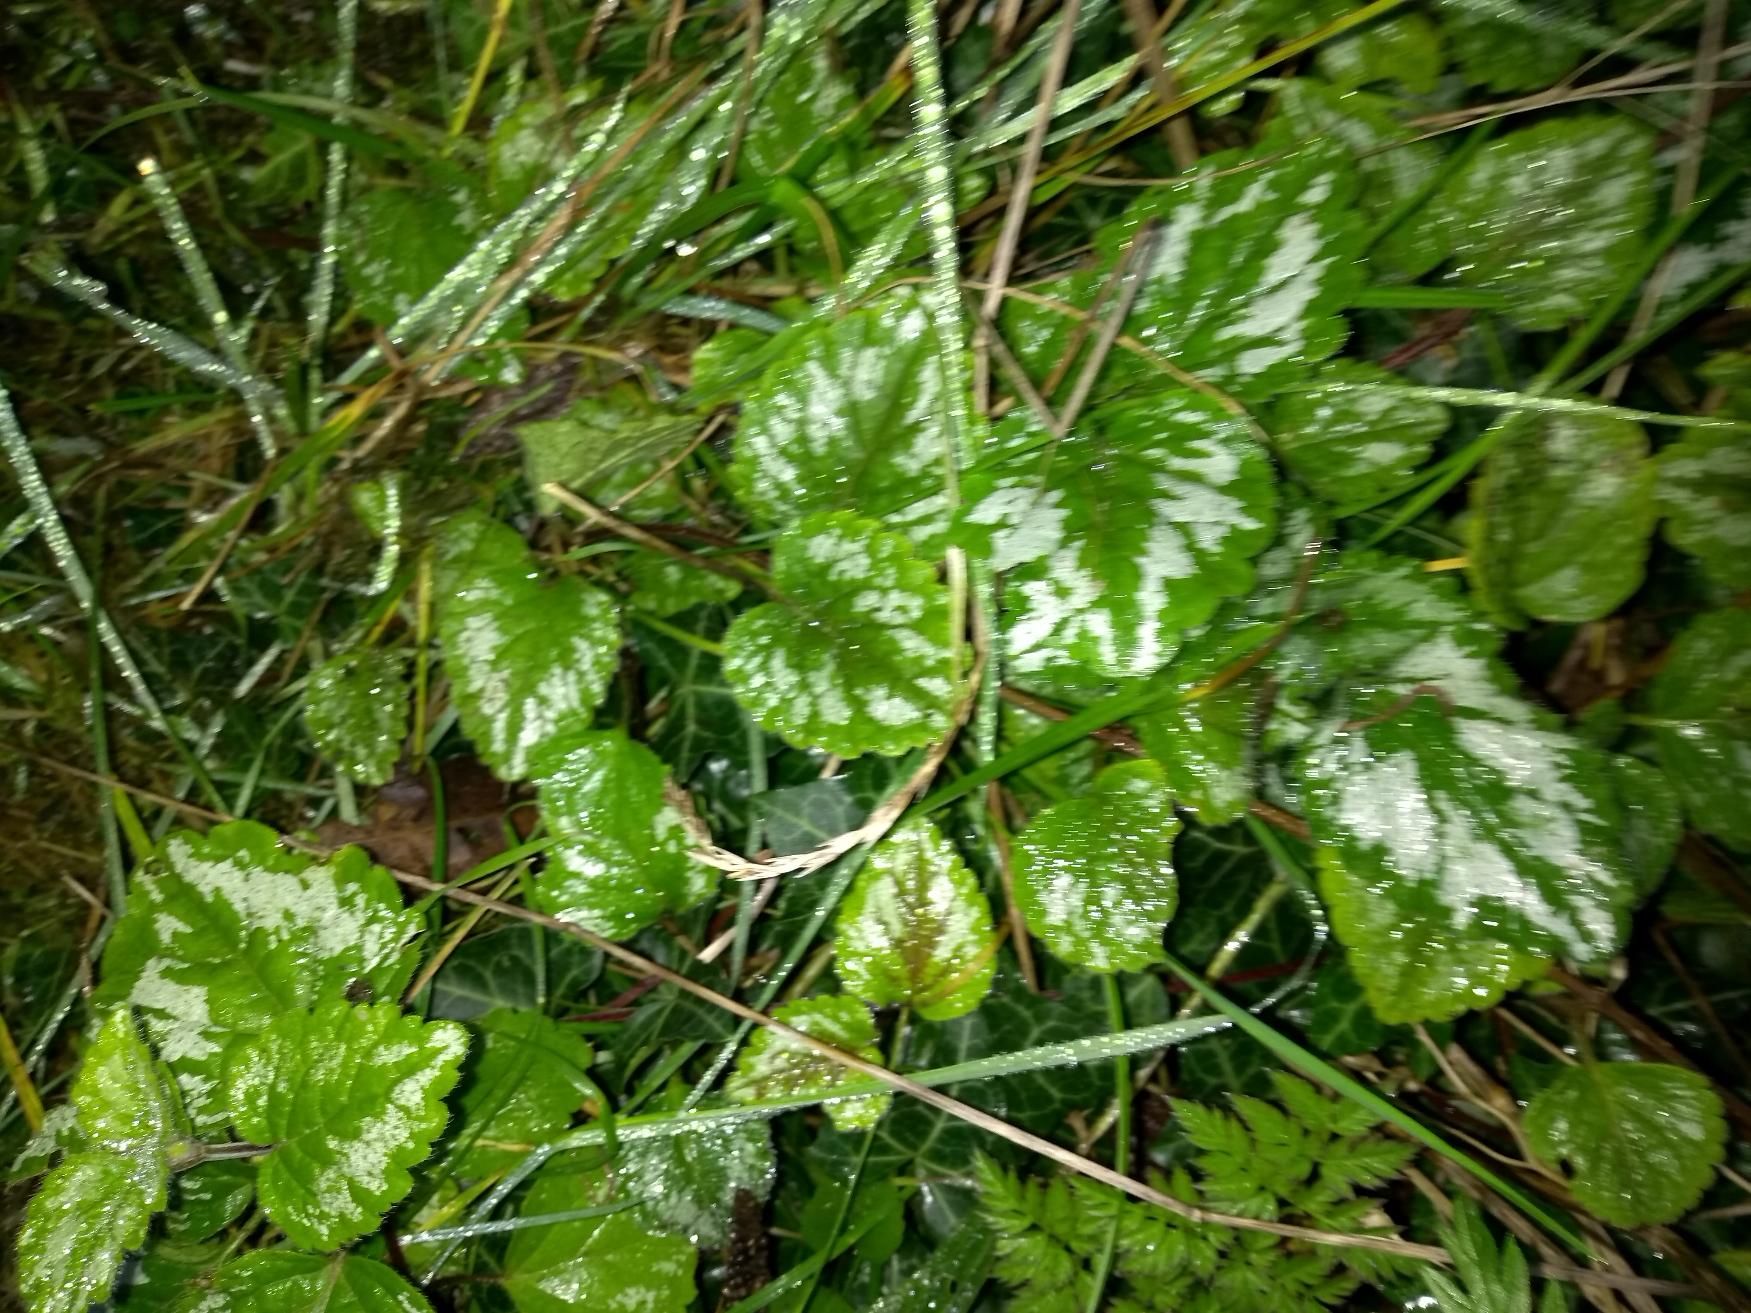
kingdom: Plantae
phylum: Tracheophyta
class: Magnoliopsida
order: Lamiales
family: Lamiaceae
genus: Lamium
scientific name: Lamium galeobdolon
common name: Have-guldnælde
